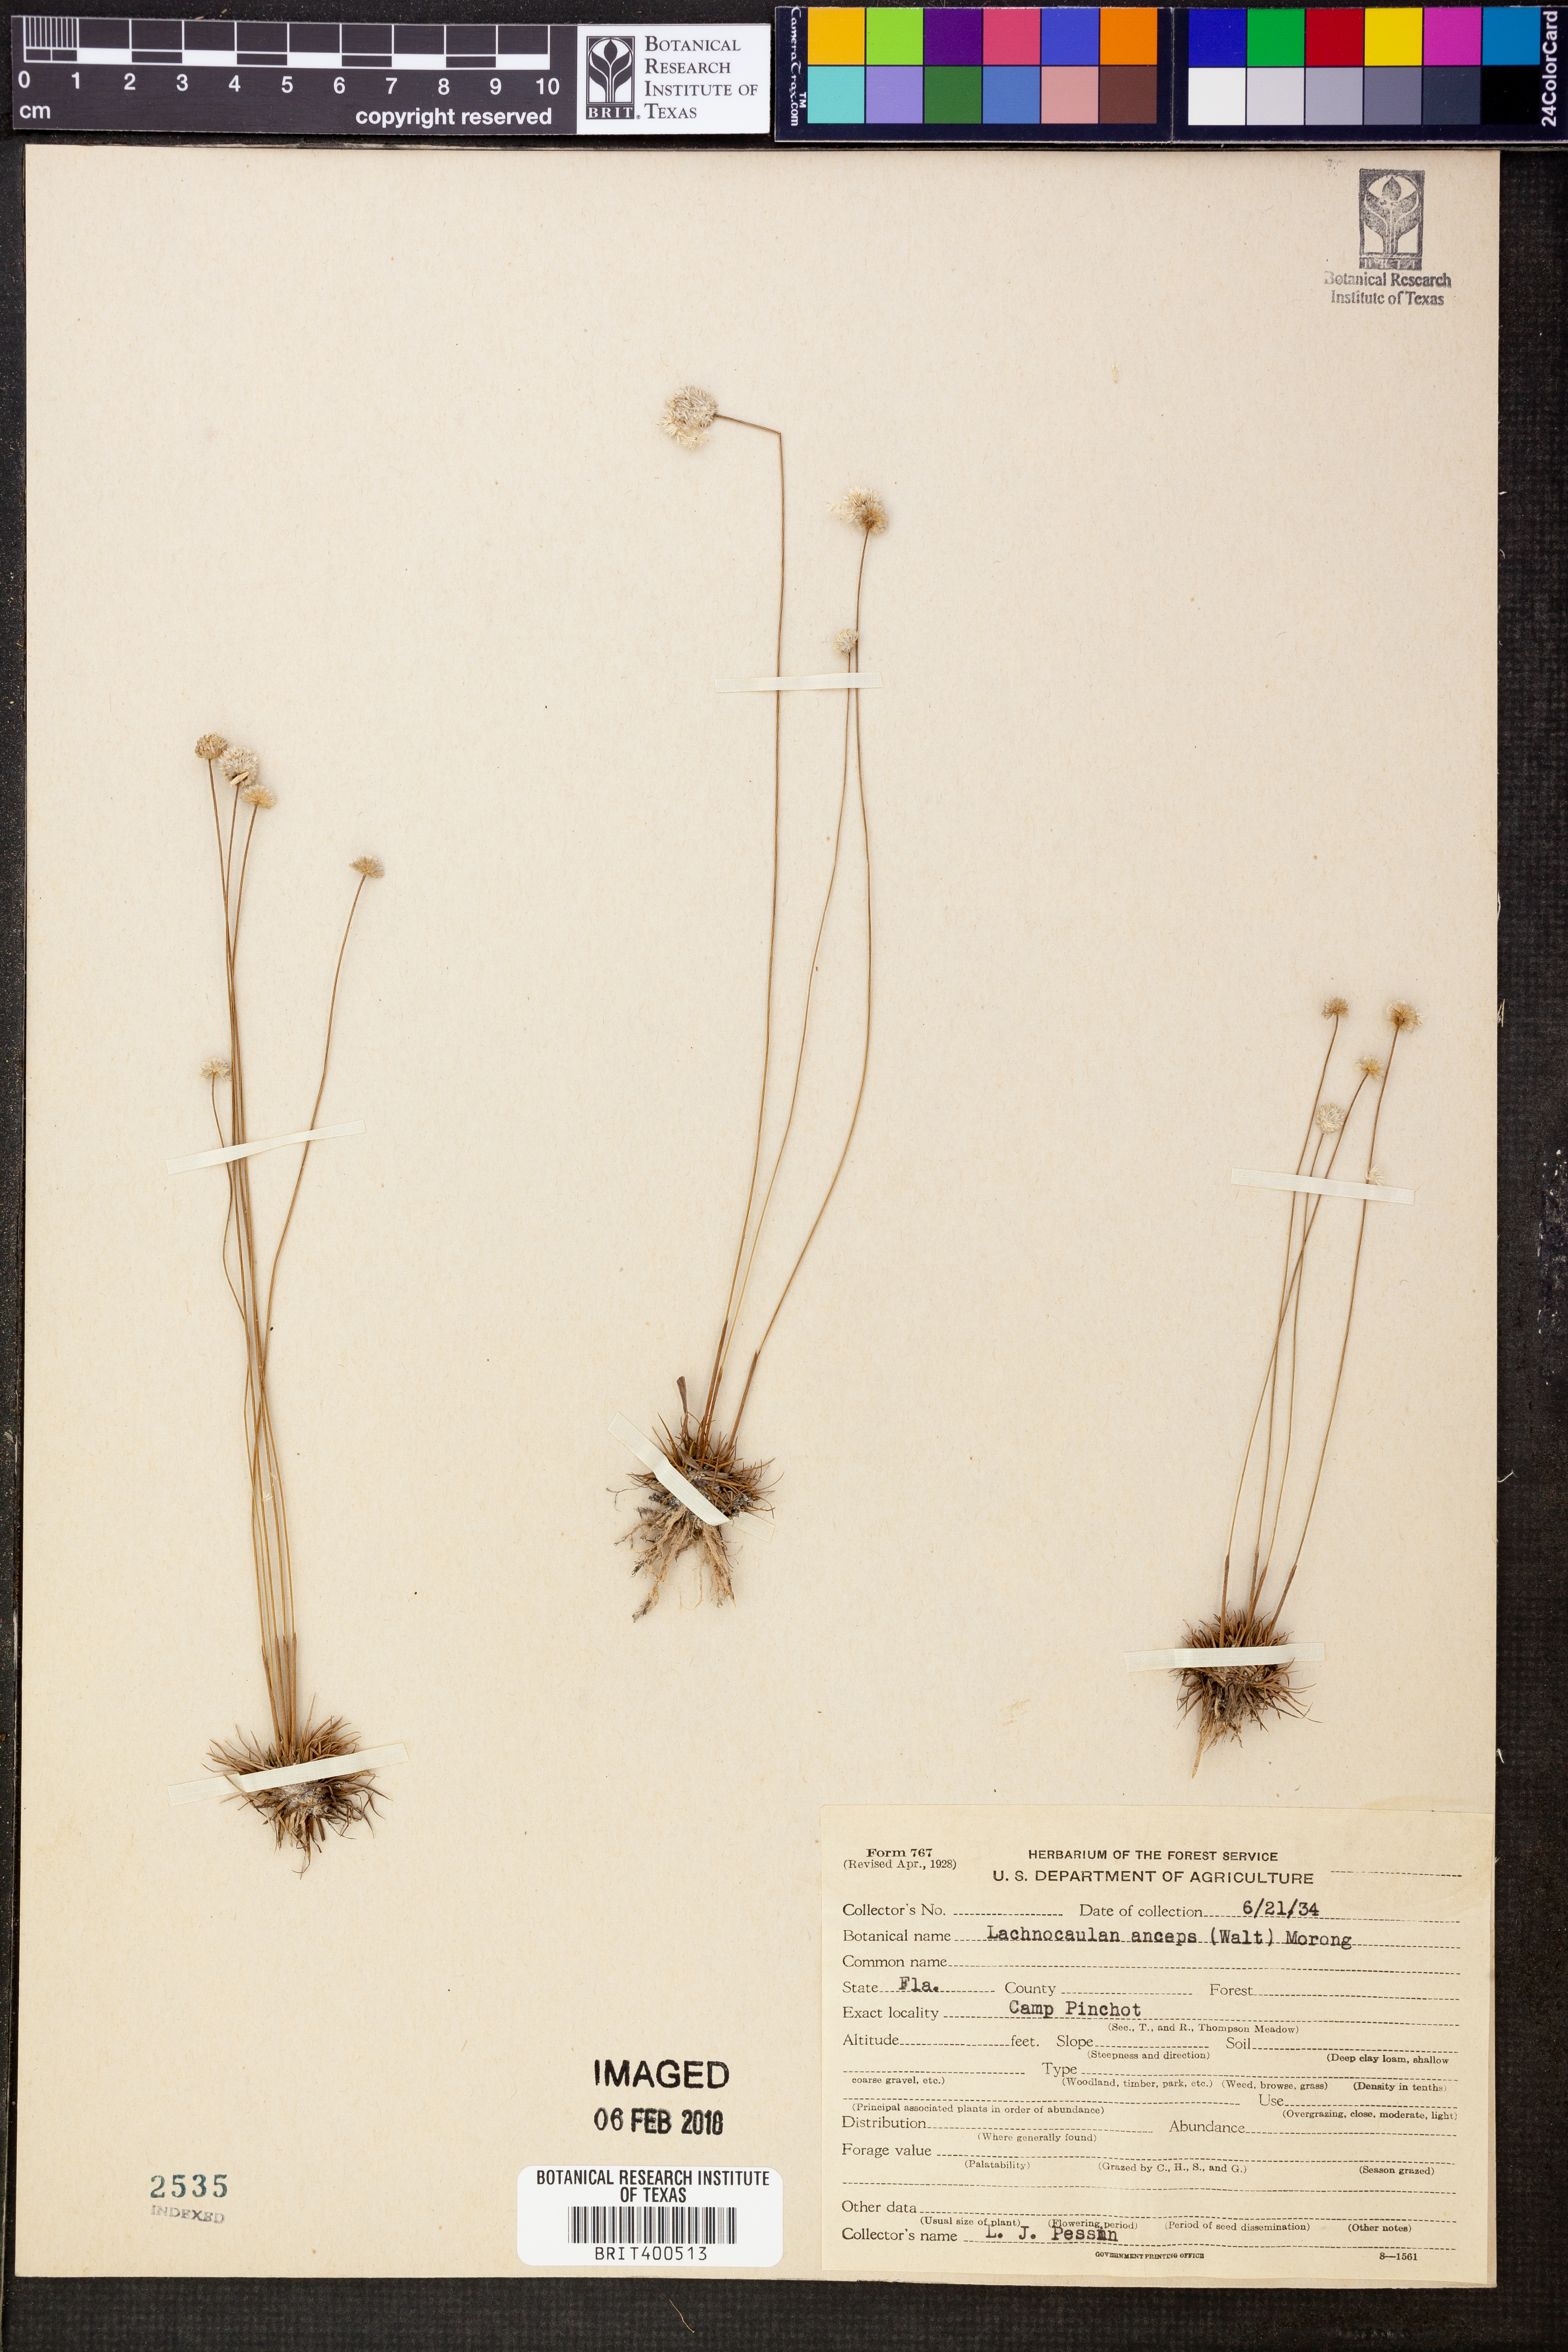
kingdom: Plantae
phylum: Tracheophyta
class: Liliopsida
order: Poales
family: Eriocaulaceae
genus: Paepalanthus
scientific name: Paepalanthus anceps
